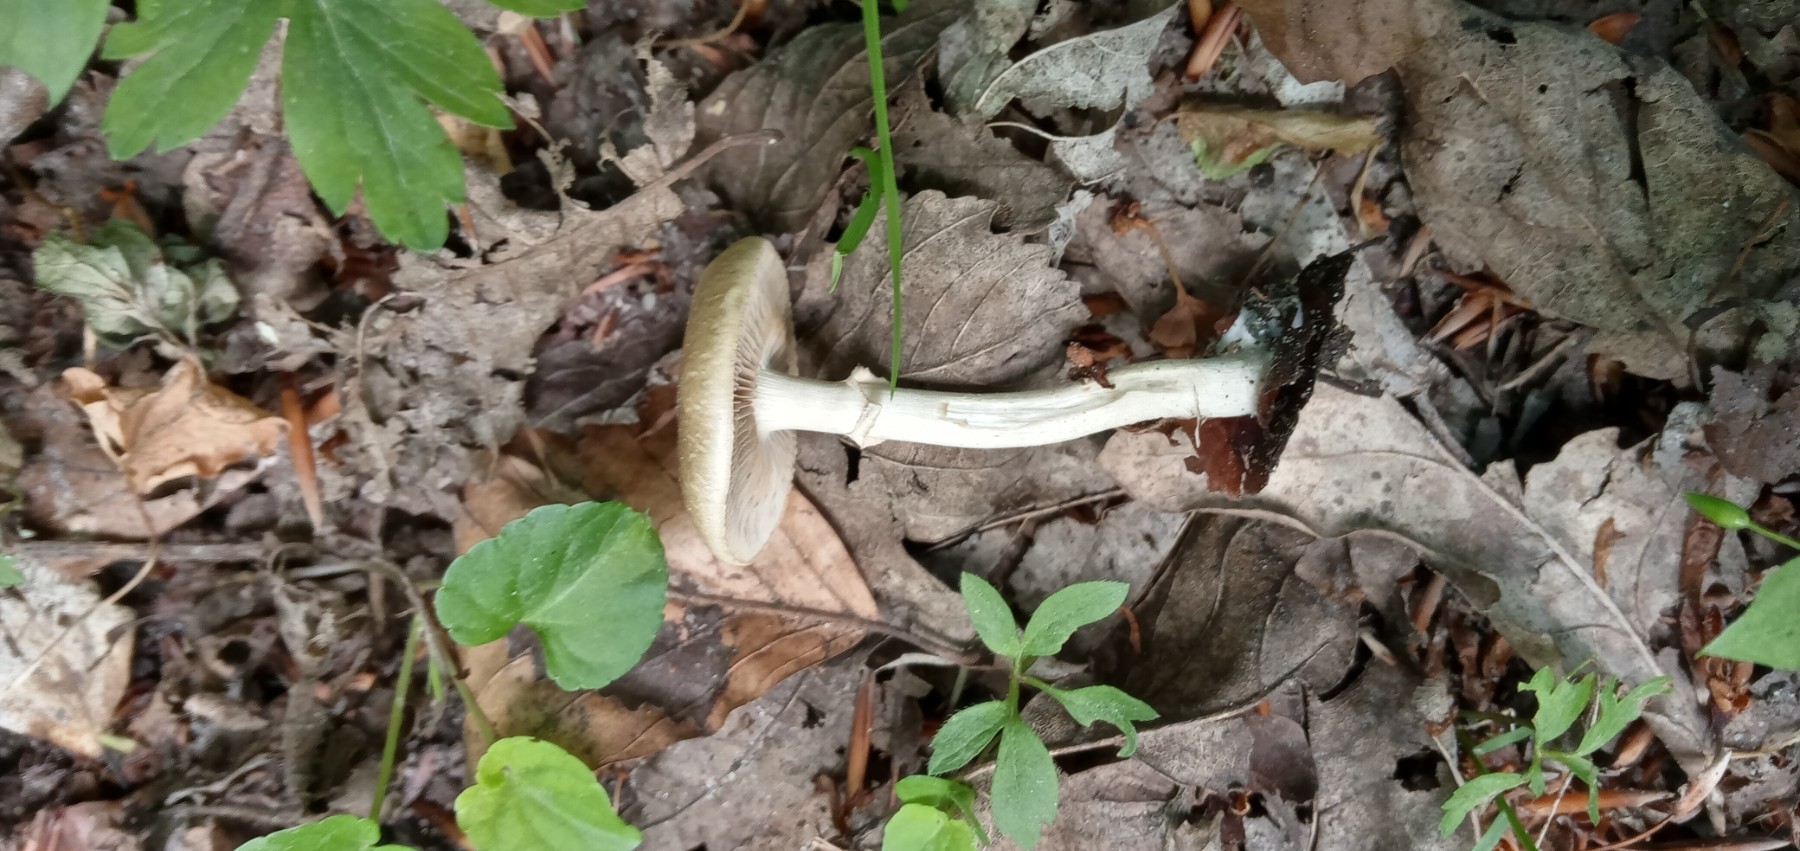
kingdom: Fungi
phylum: Basidiomycota
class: Agaricomycetes
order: Agaricales
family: Strophariaceae
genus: Agrocybe
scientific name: Agrocybe praecox
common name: tidlig agerhat
